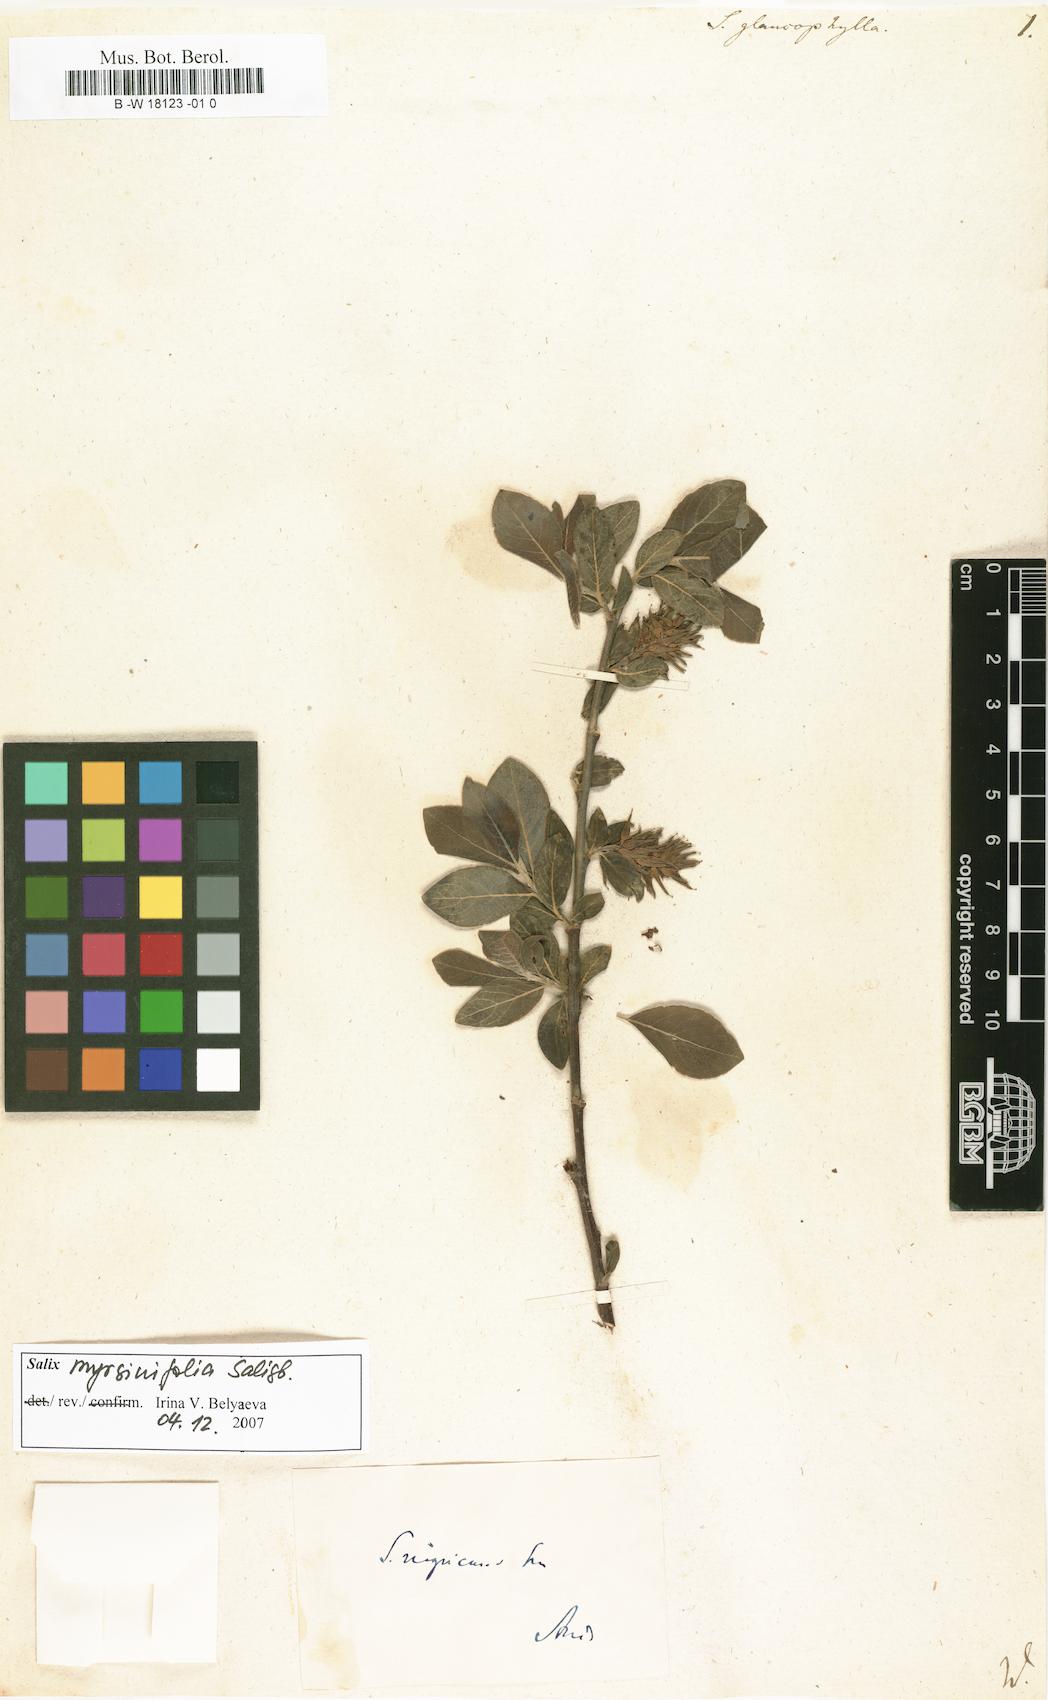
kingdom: Plantae
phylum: Tracheophyta
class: Magnoliopsida
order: Malpighiales
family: Salicaceae
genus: Salix
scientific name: Salix
